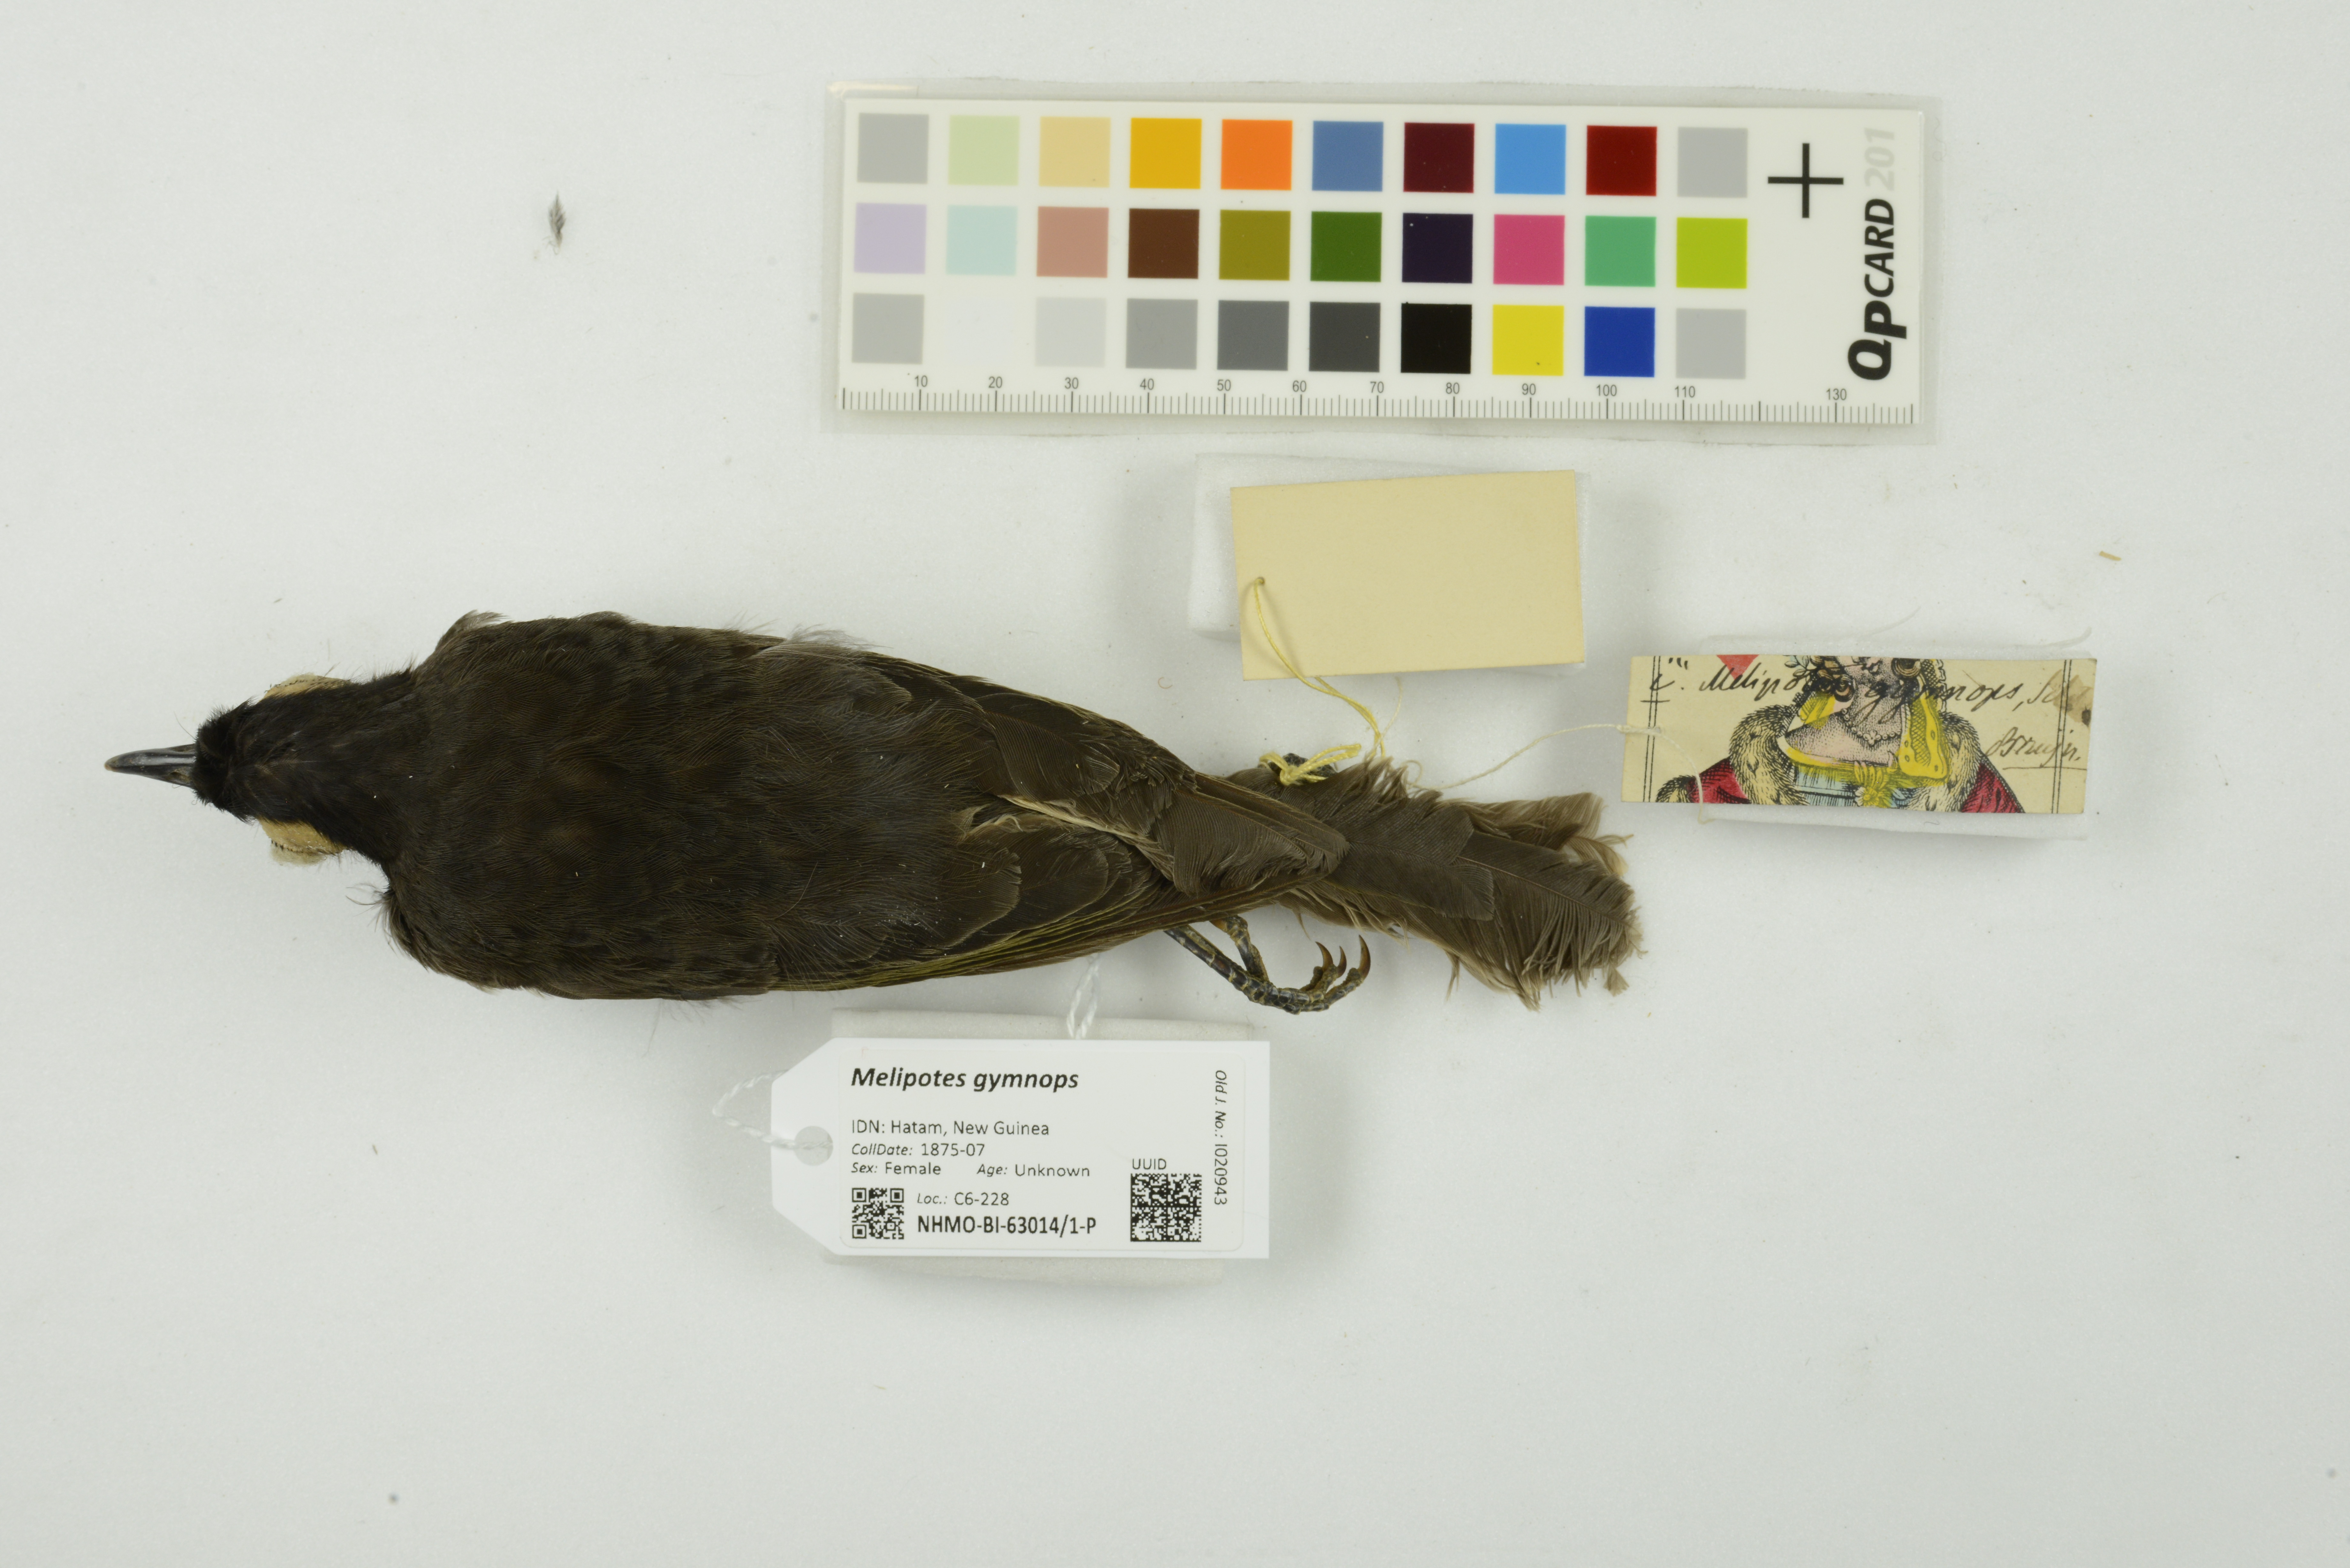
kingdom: Animalia
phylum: Chordata
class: Aves
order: Passeriformes
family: Meliphagidae
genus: Melipotes
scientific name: Melipotes gymnops
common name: Arfak honeyeater
